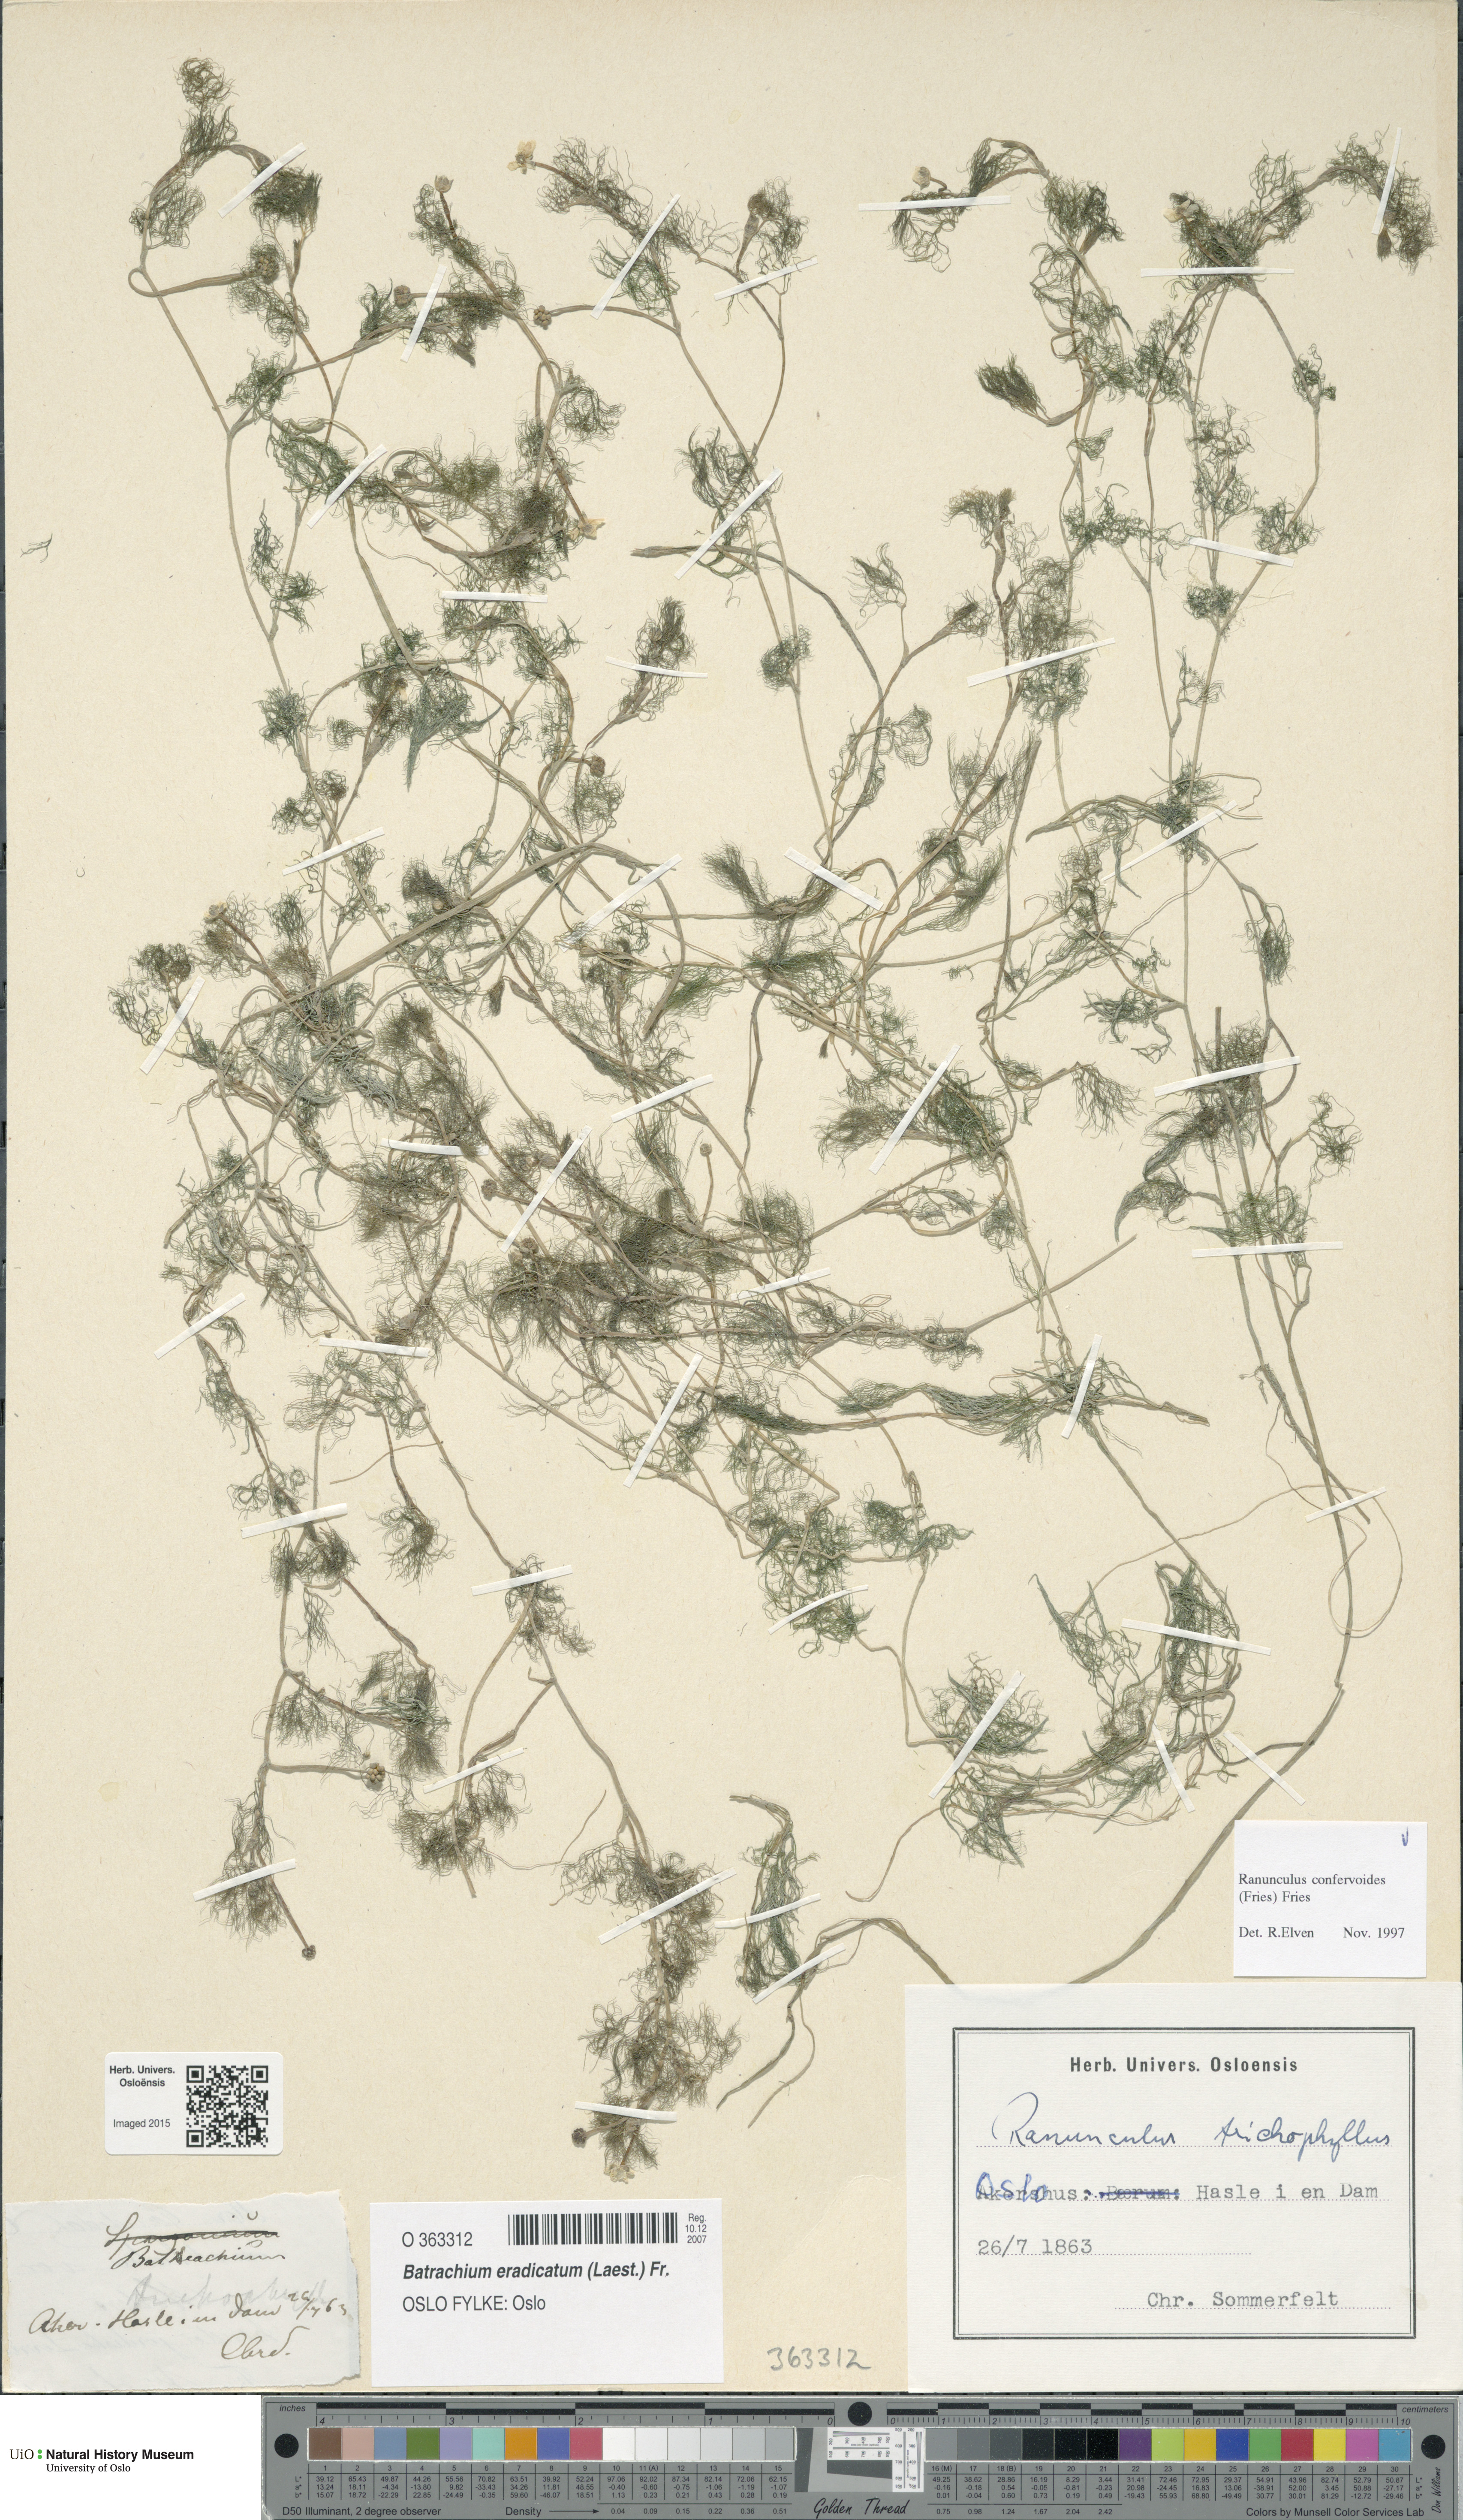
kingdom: Plantae
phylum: Tracheophyta
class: Magnoliopsida
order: Ranunculales
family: Ranunculaceae
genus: Ranunculus
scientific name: Ranunculus confervoides
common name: Delicate buttercup
